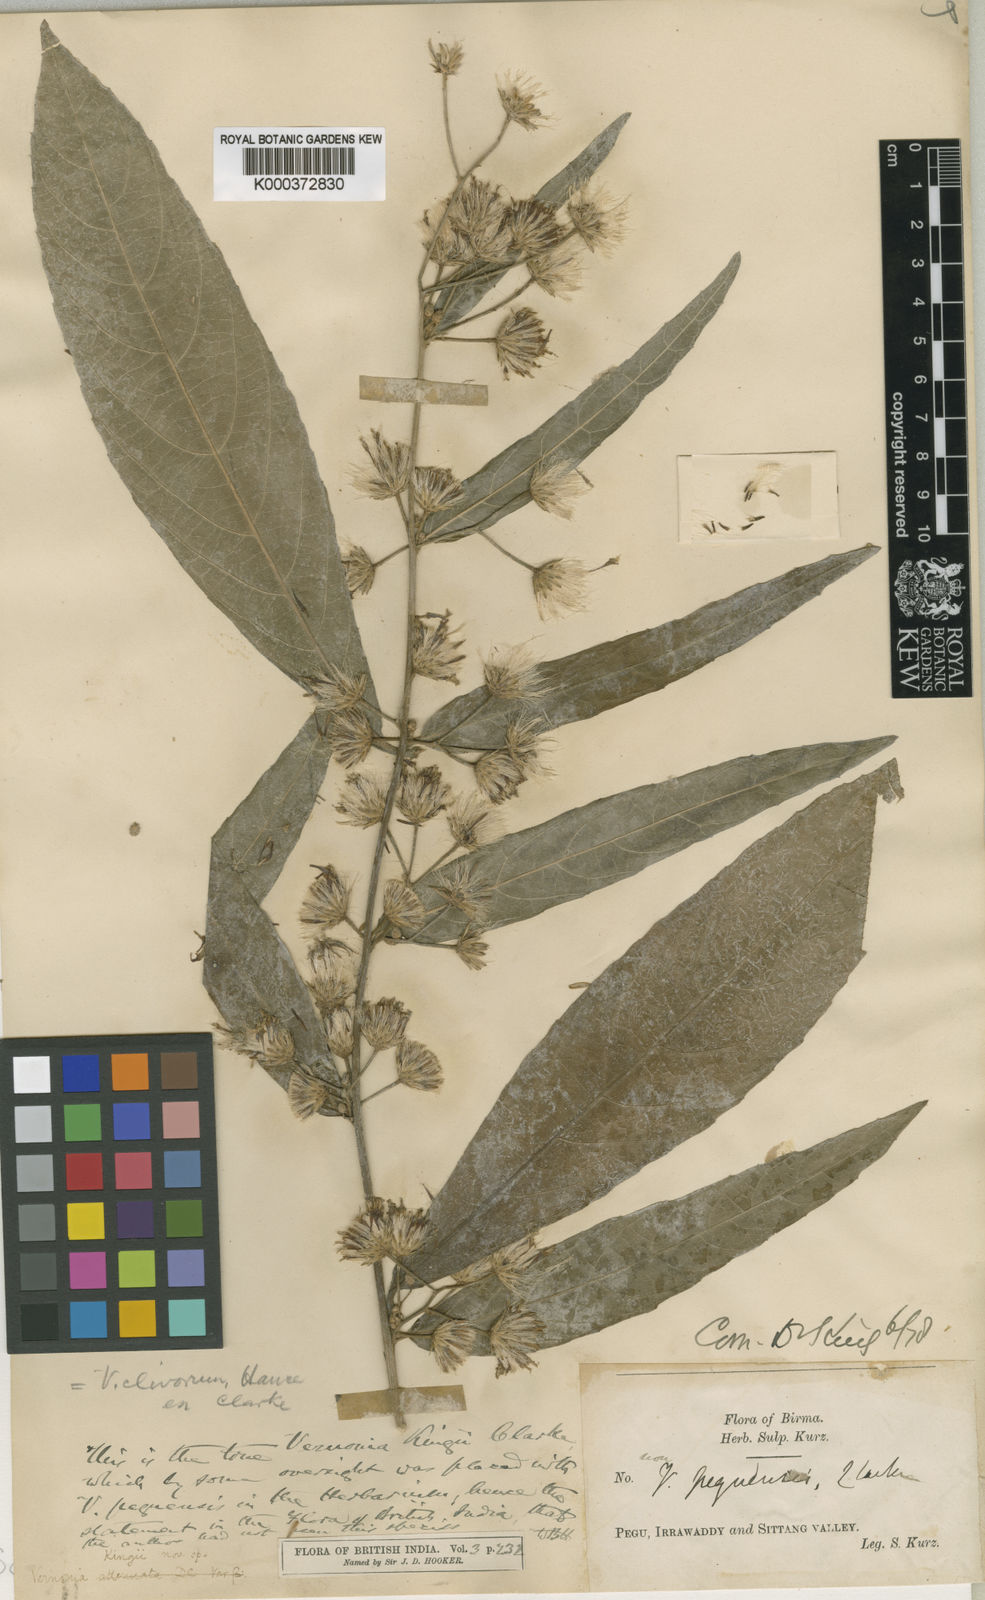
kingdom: Plantae
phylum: Tracheophyta
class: Magnoliopsida
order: Asterales
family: Asteraceae
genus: Acilepis
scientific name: Acilepis clivorum
